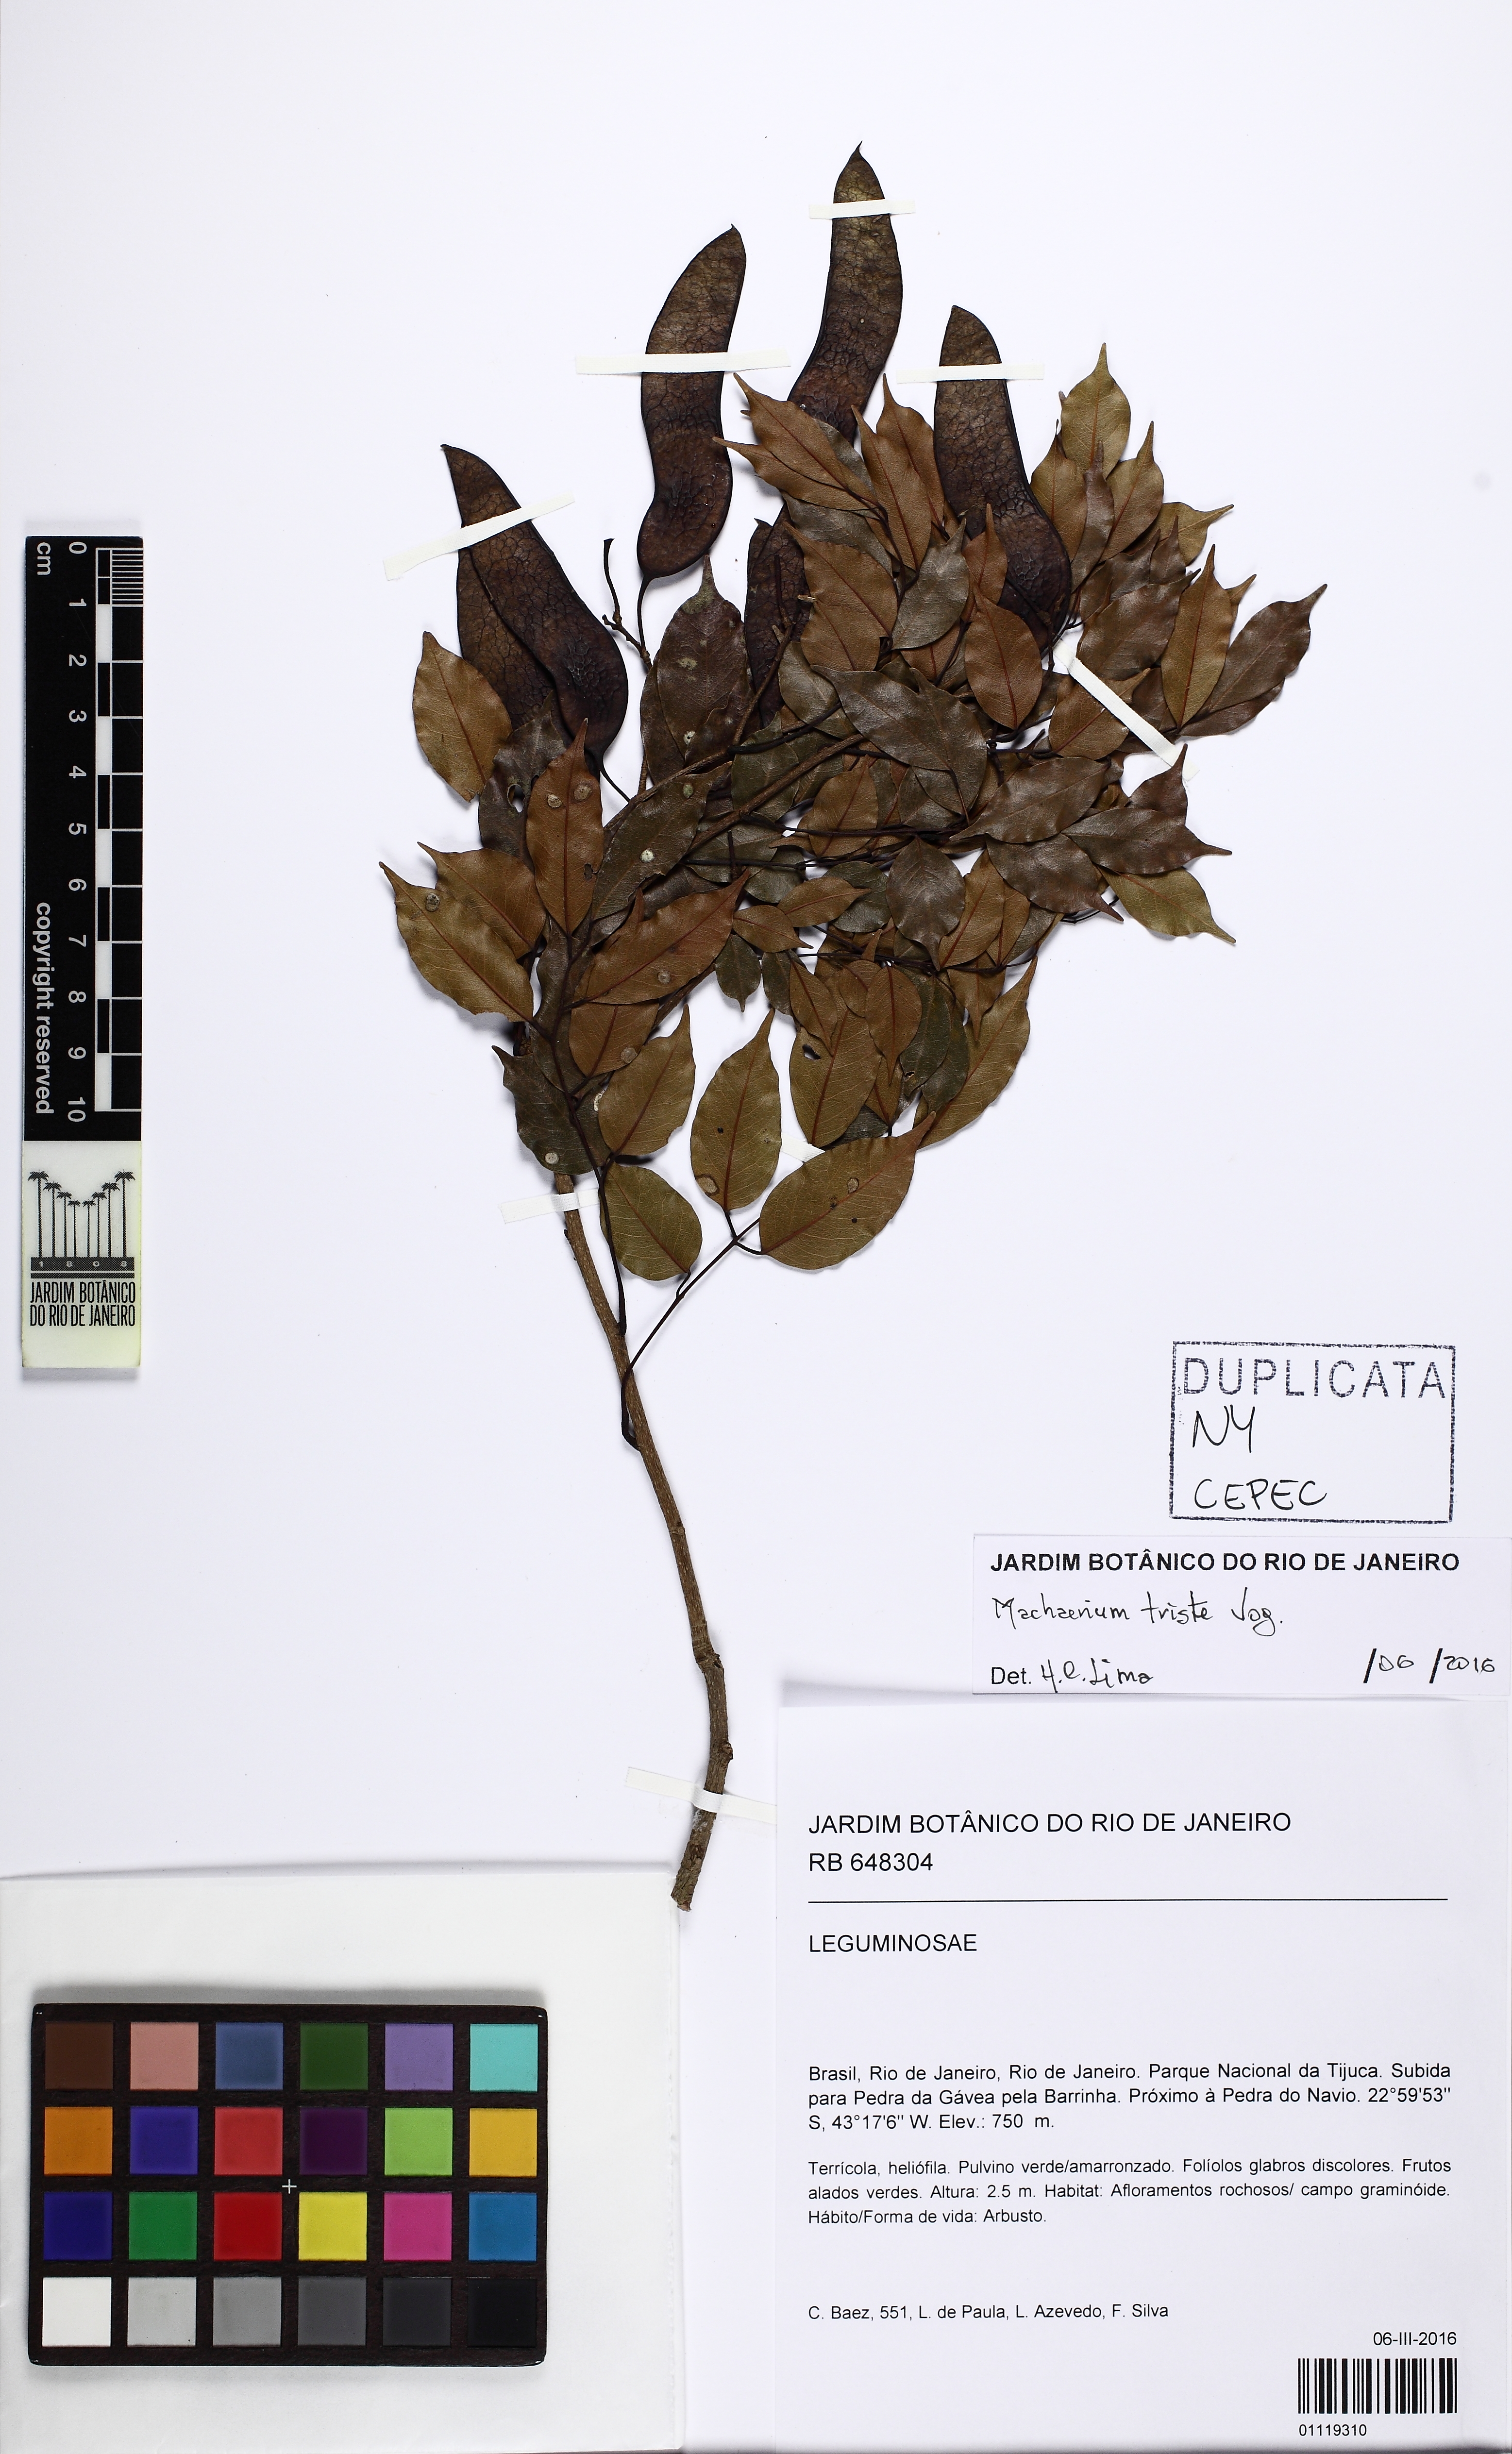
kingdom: Plantae
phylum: Tracheophyta
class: Magnoliopsida
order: Fabales
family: Fabaceae
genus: Machaerium
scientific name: Machaerium brasiliense
